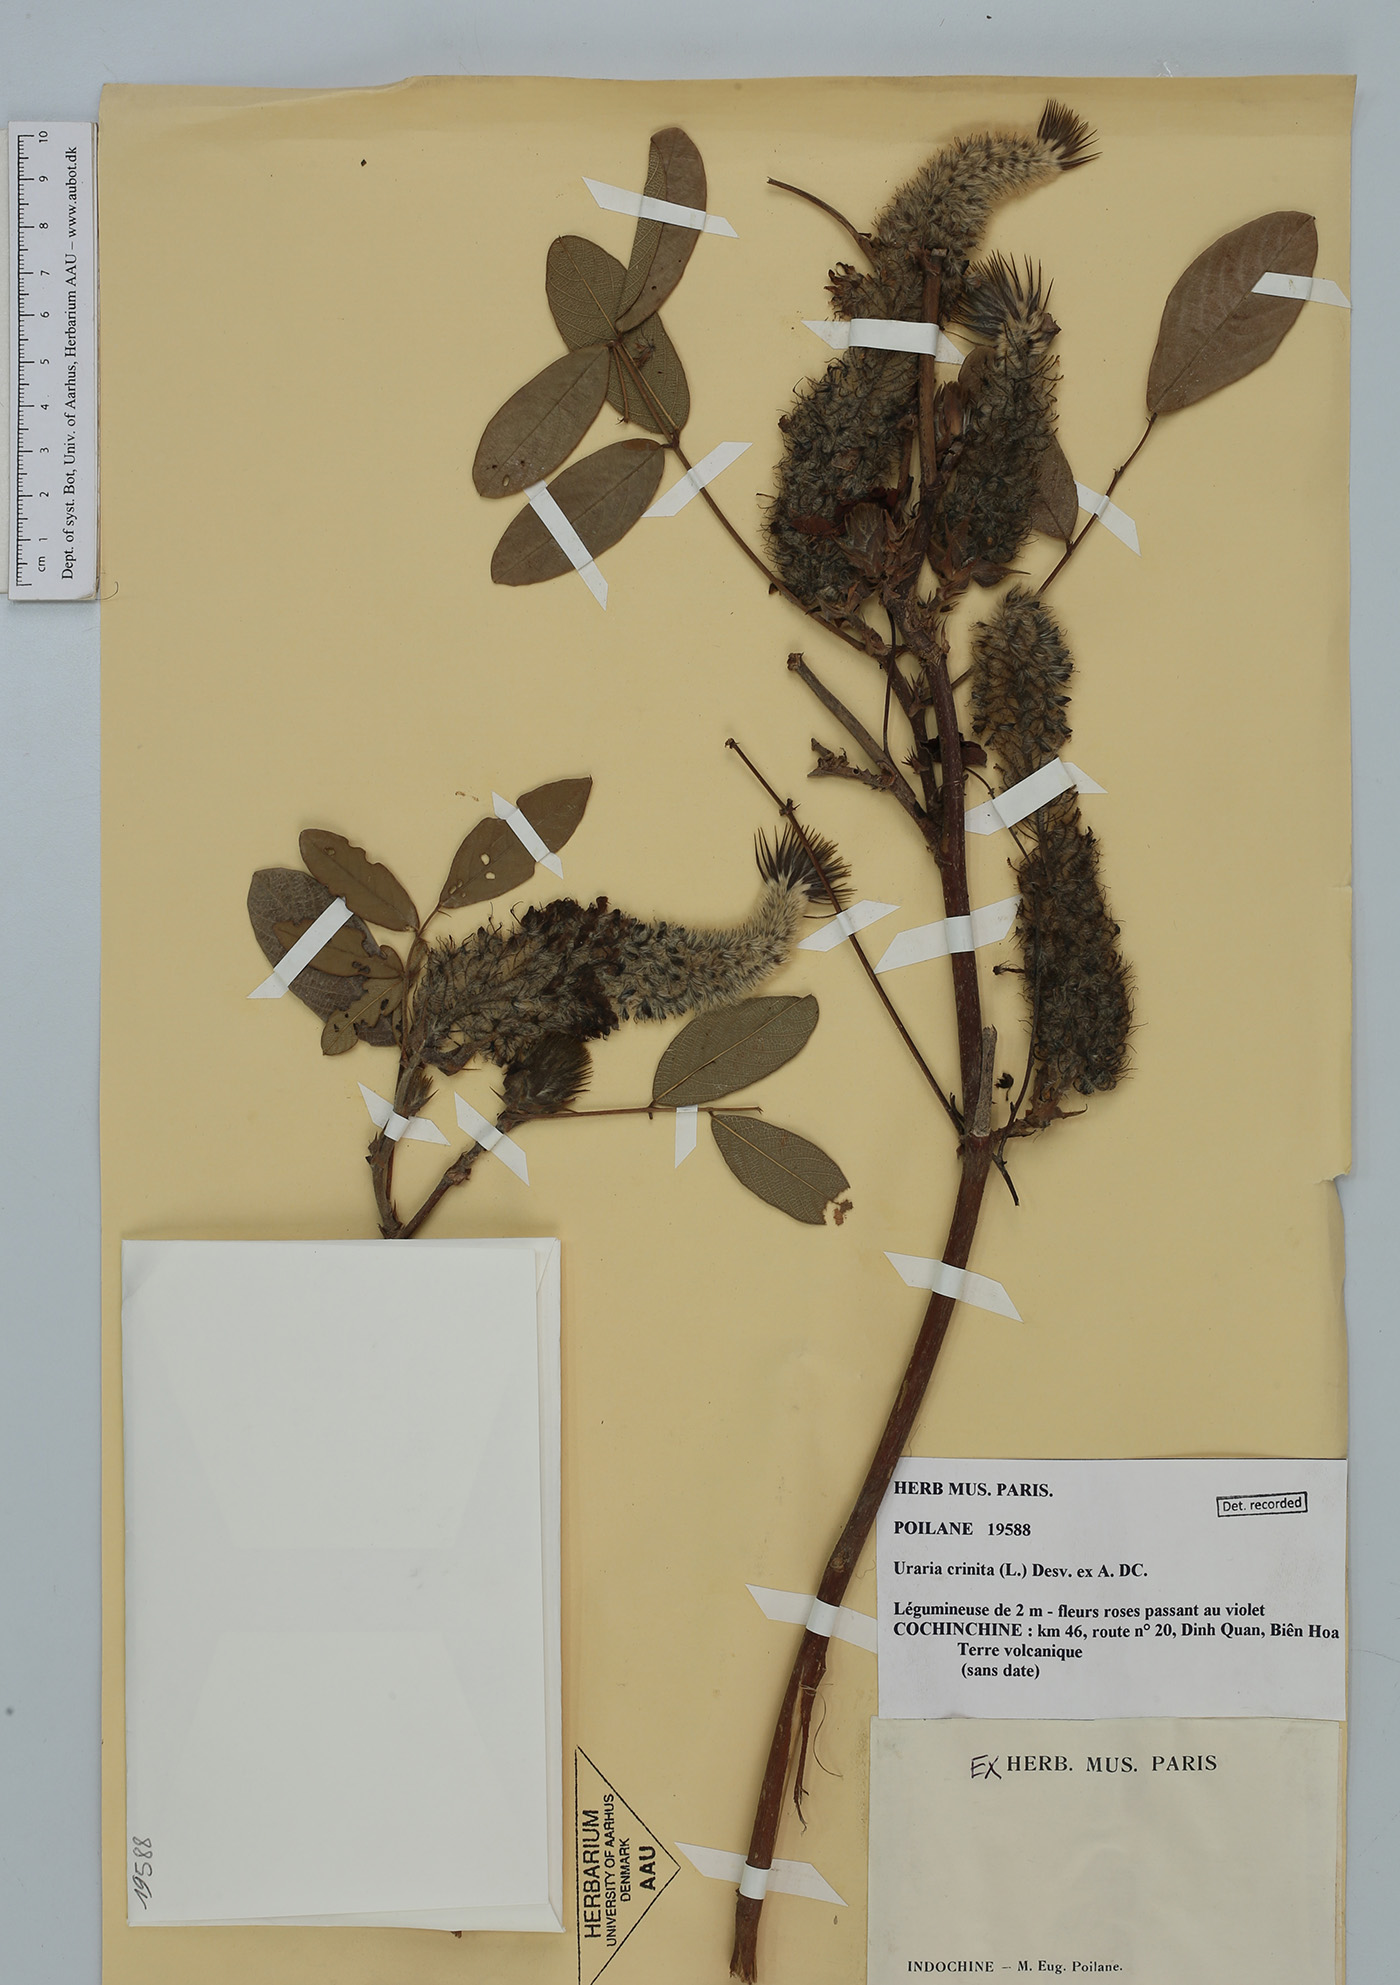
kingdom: Plantae
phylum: Tracheophyta
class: Magnoliopsida
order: Fabales
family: Fabaceae
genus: Uraria
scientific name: Uraria crinita
